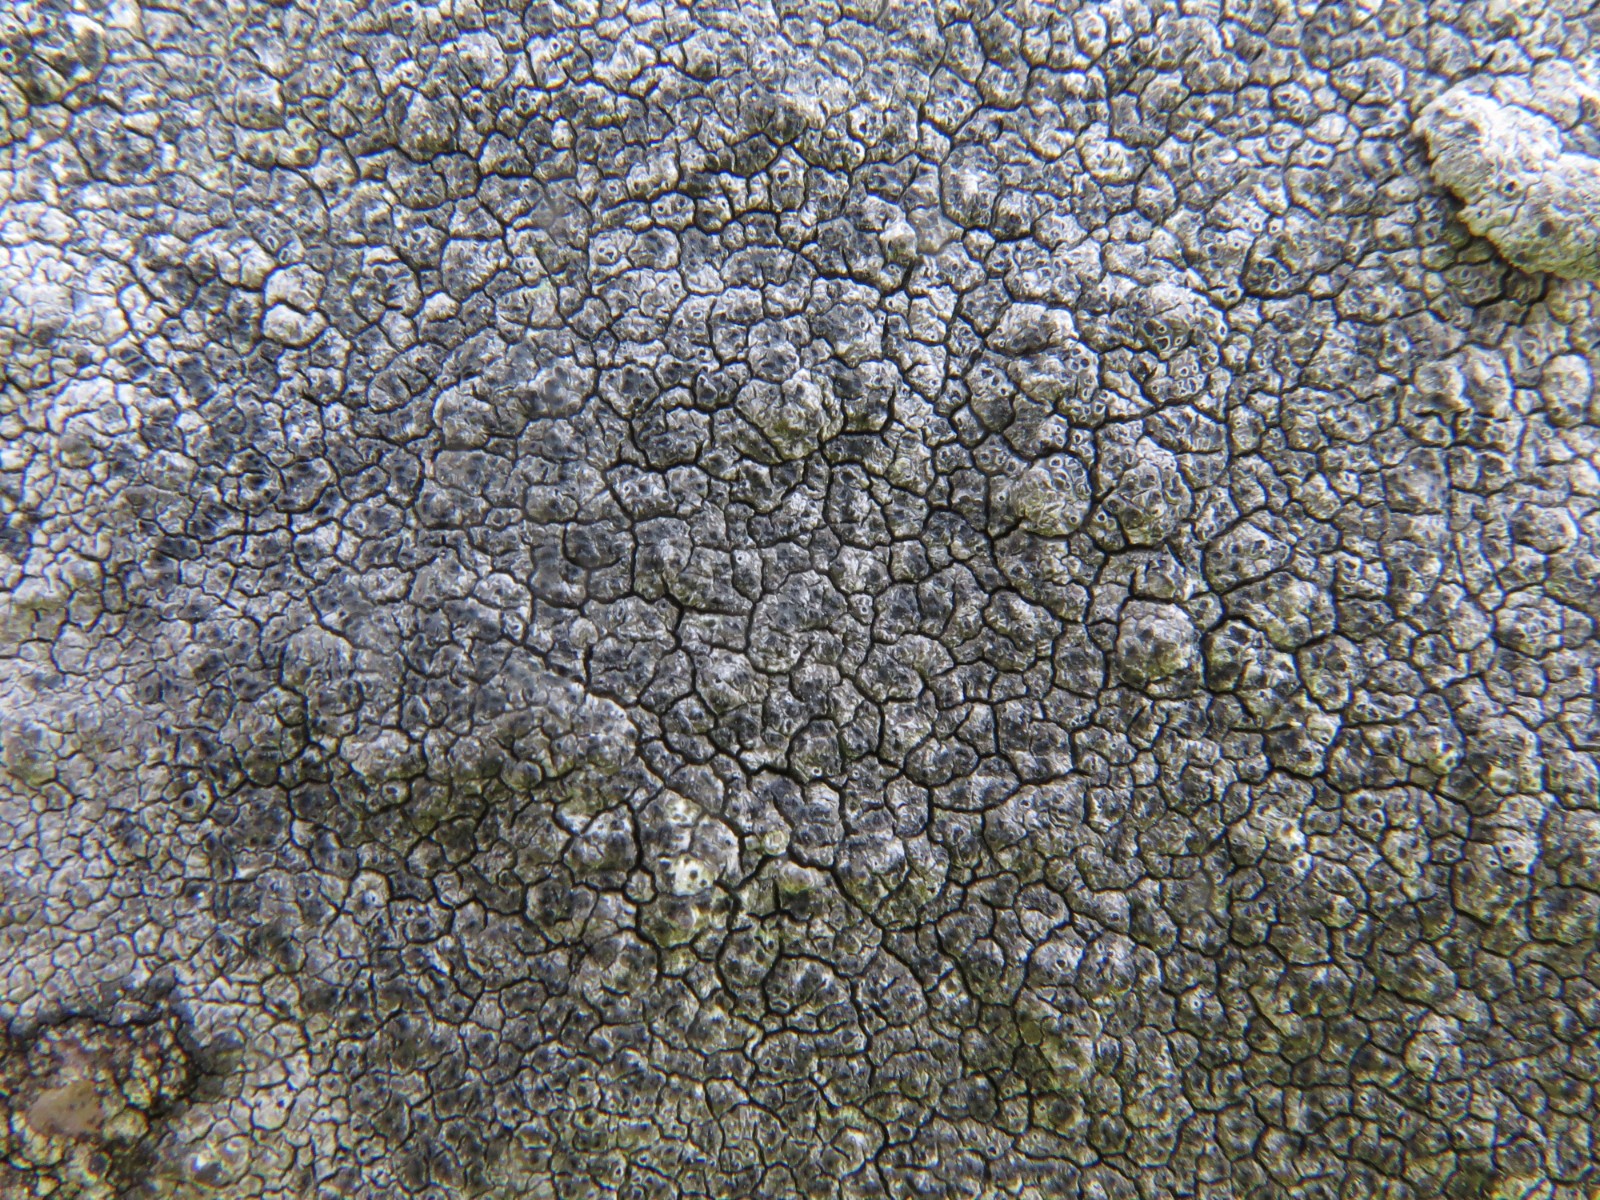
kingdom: Fungi
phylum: Ascomycota
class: Lecanoromycetes
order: Pertusariales
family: Megasporaceae
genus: Circinaria
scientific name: Circinaria caesiocinerea
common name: fuglestens-hulskivelav
